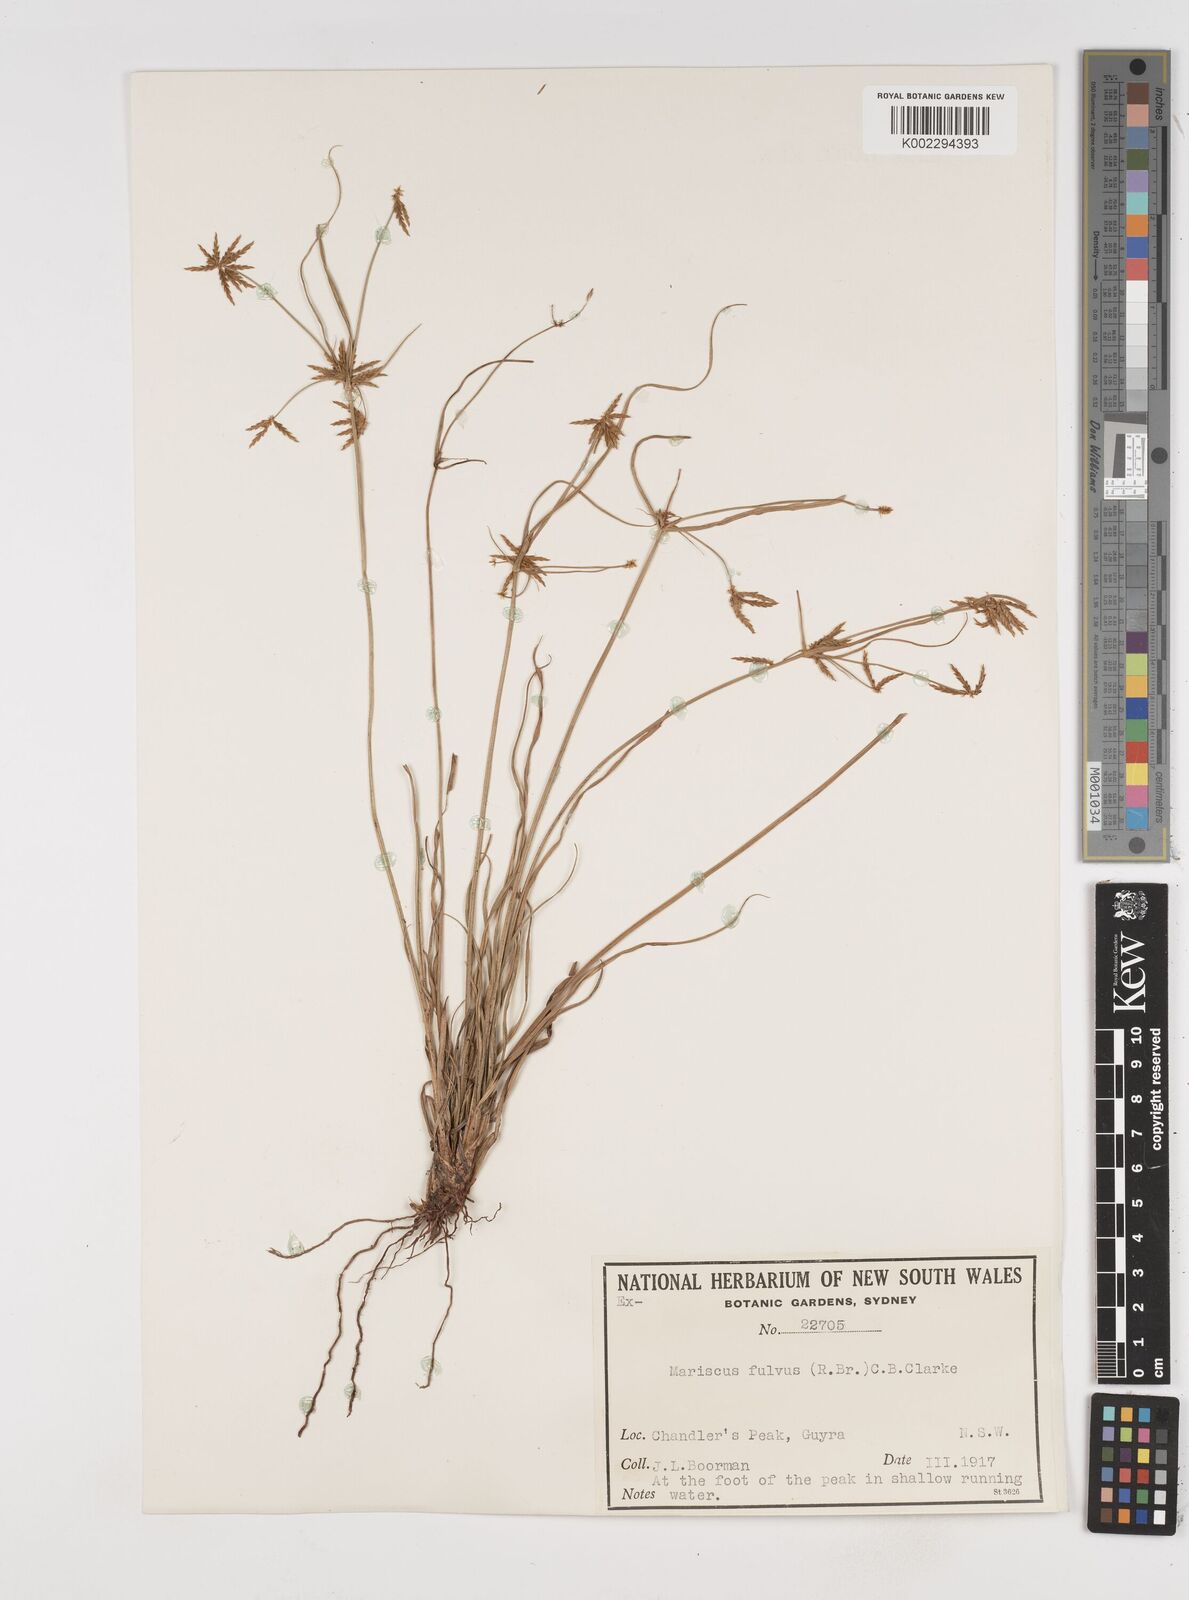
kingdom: Plantae
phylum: Tracheophyta
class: Liliopsida
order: Poales
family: Cyperaceae
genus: Cyperus
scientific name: Cyperus fulvus
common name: Sticky sedge
